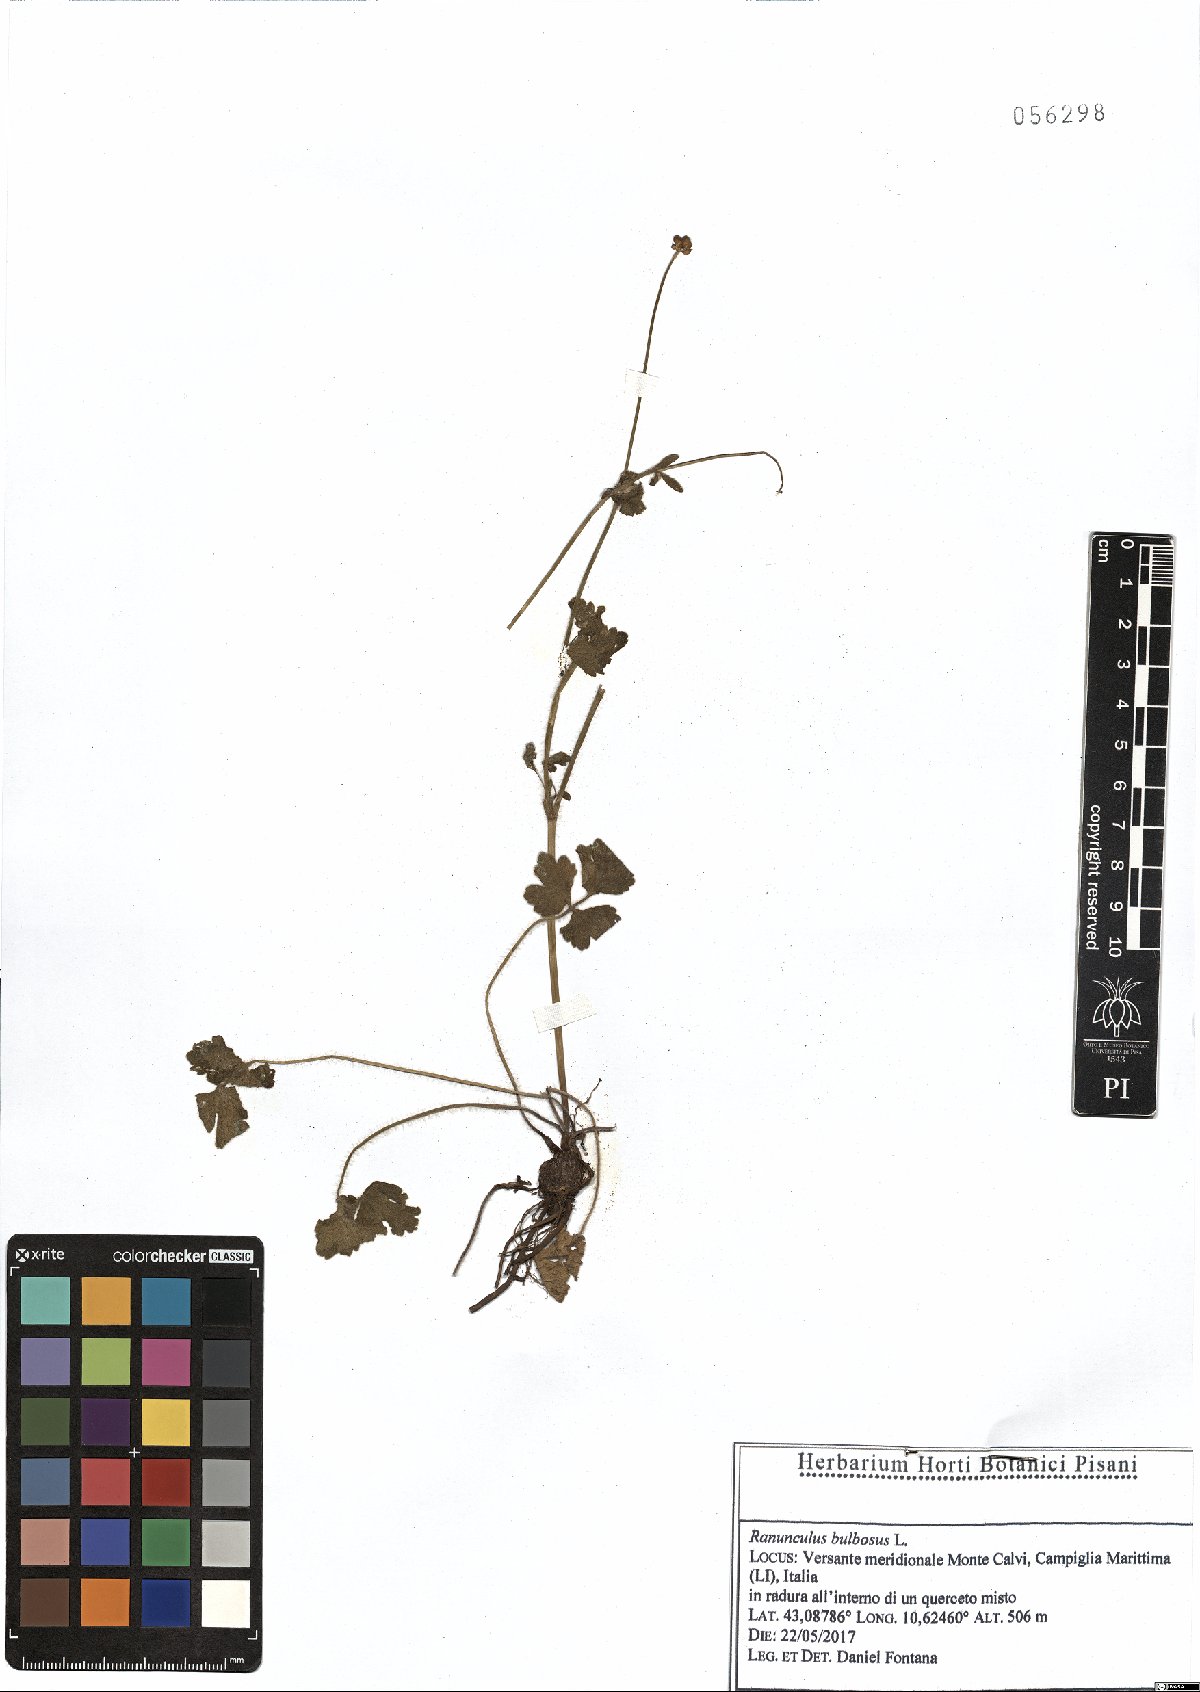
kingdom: Plantae
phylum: Tracheophyta
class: Magnoliopsida
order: Ranunculales
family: Ranunculaceae
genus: Ranunculus
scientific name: Ranunculus bulbosus
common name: Bulbous buttercup
